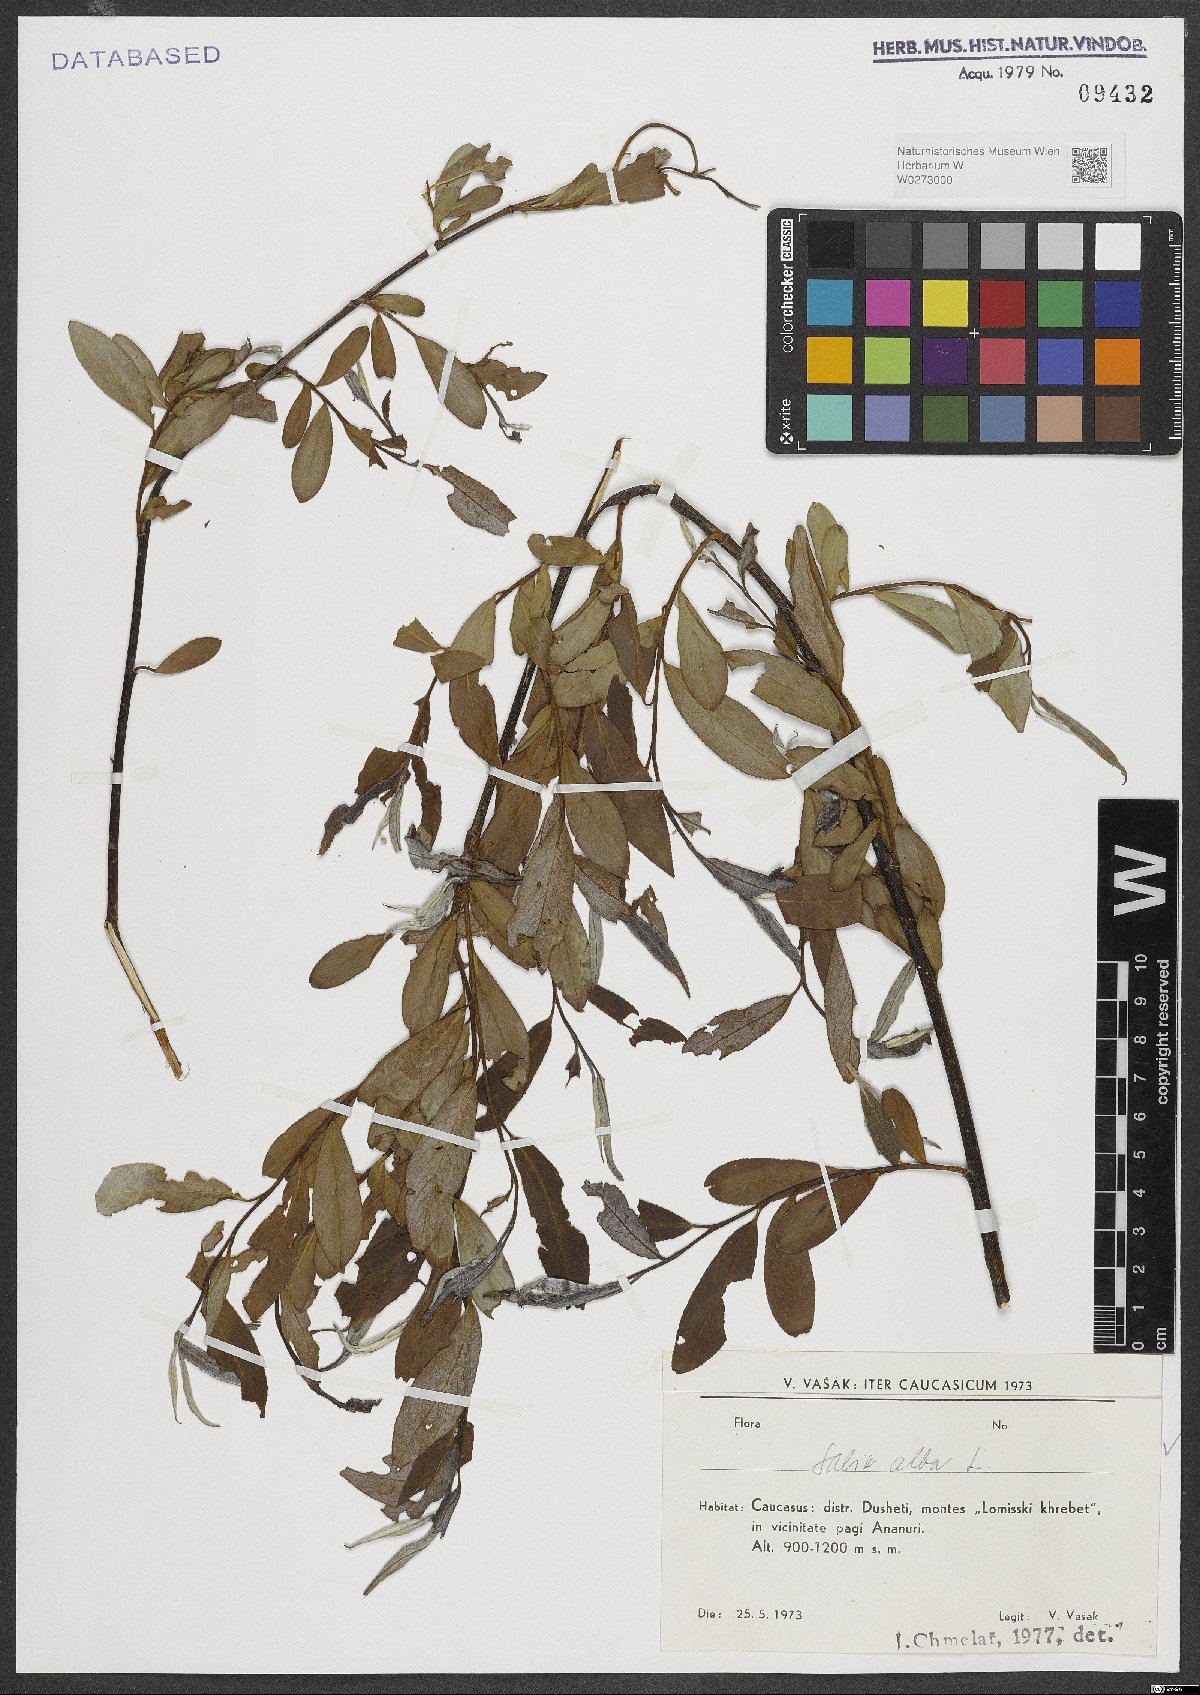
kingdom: Plantae
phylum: Tracheophyta
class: Magnoliopsida
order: Malpighiales
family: Salicaceae
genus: Salix
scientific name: Salix alba
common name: White willow
